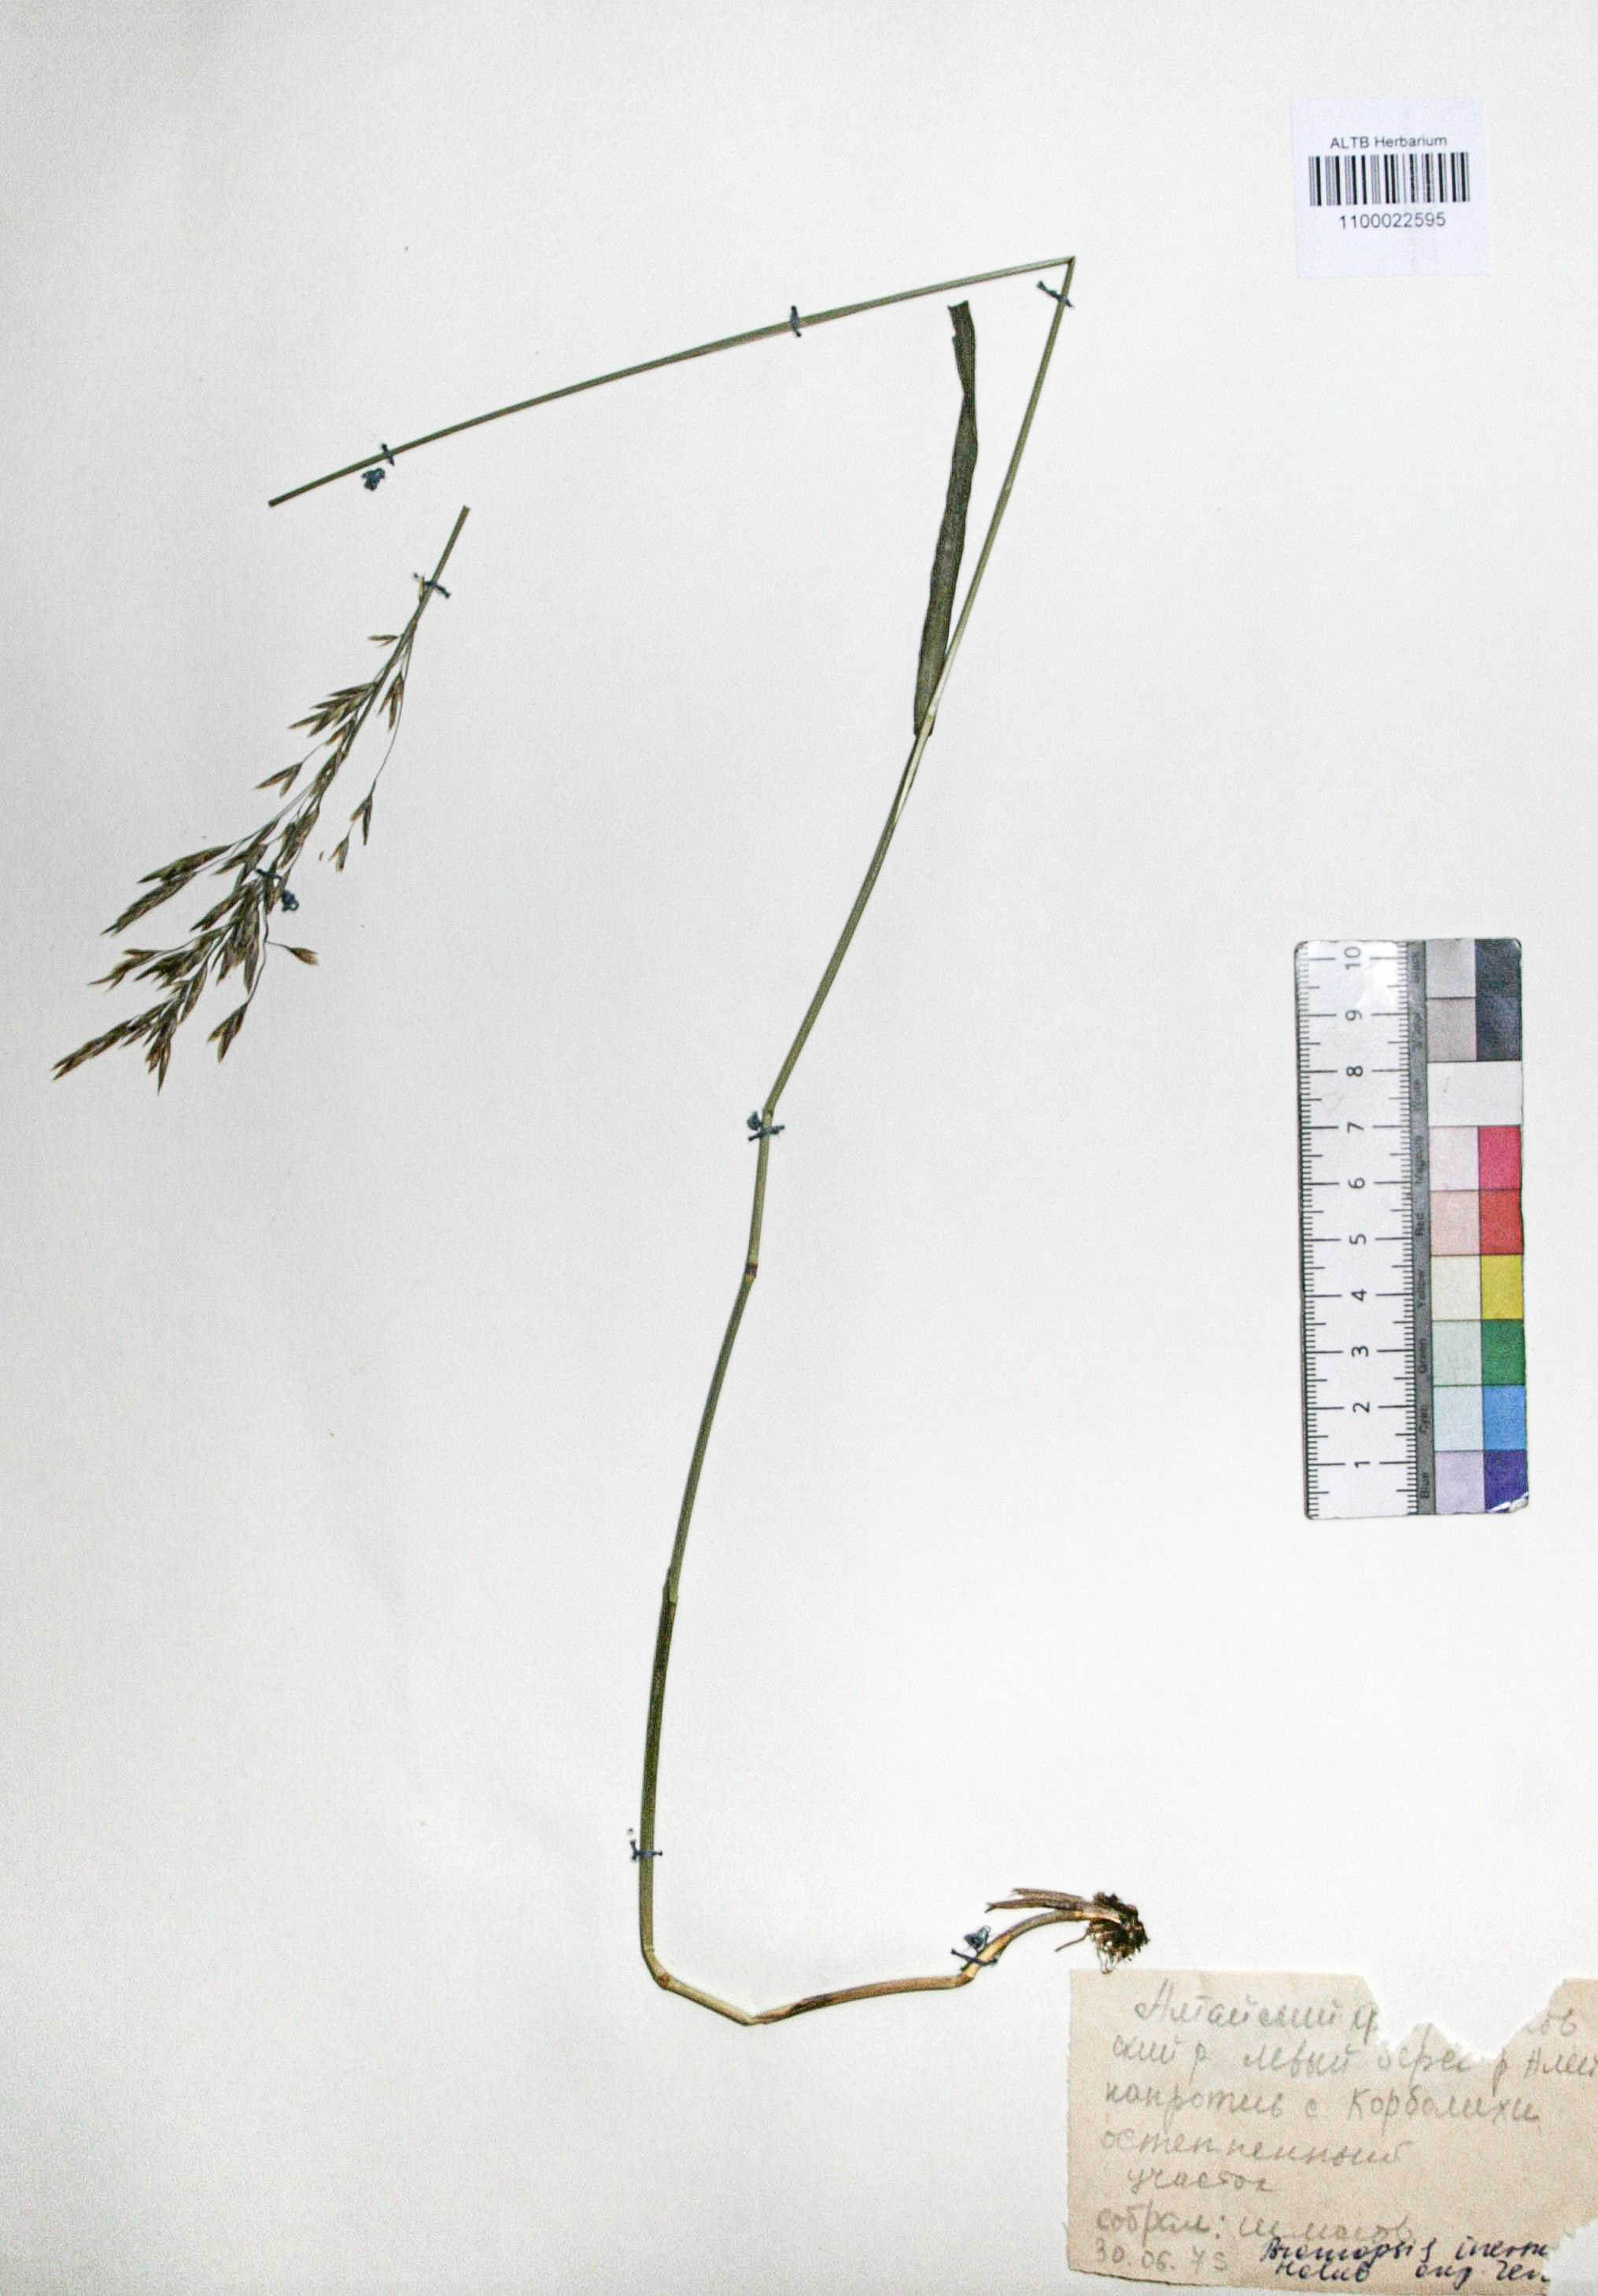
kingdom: Plantae
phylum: Tracheophyta
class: Liliopsida
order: Poales
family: Poaceae
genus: Bromus
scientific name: Bromus inermis
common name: Smooth brome
